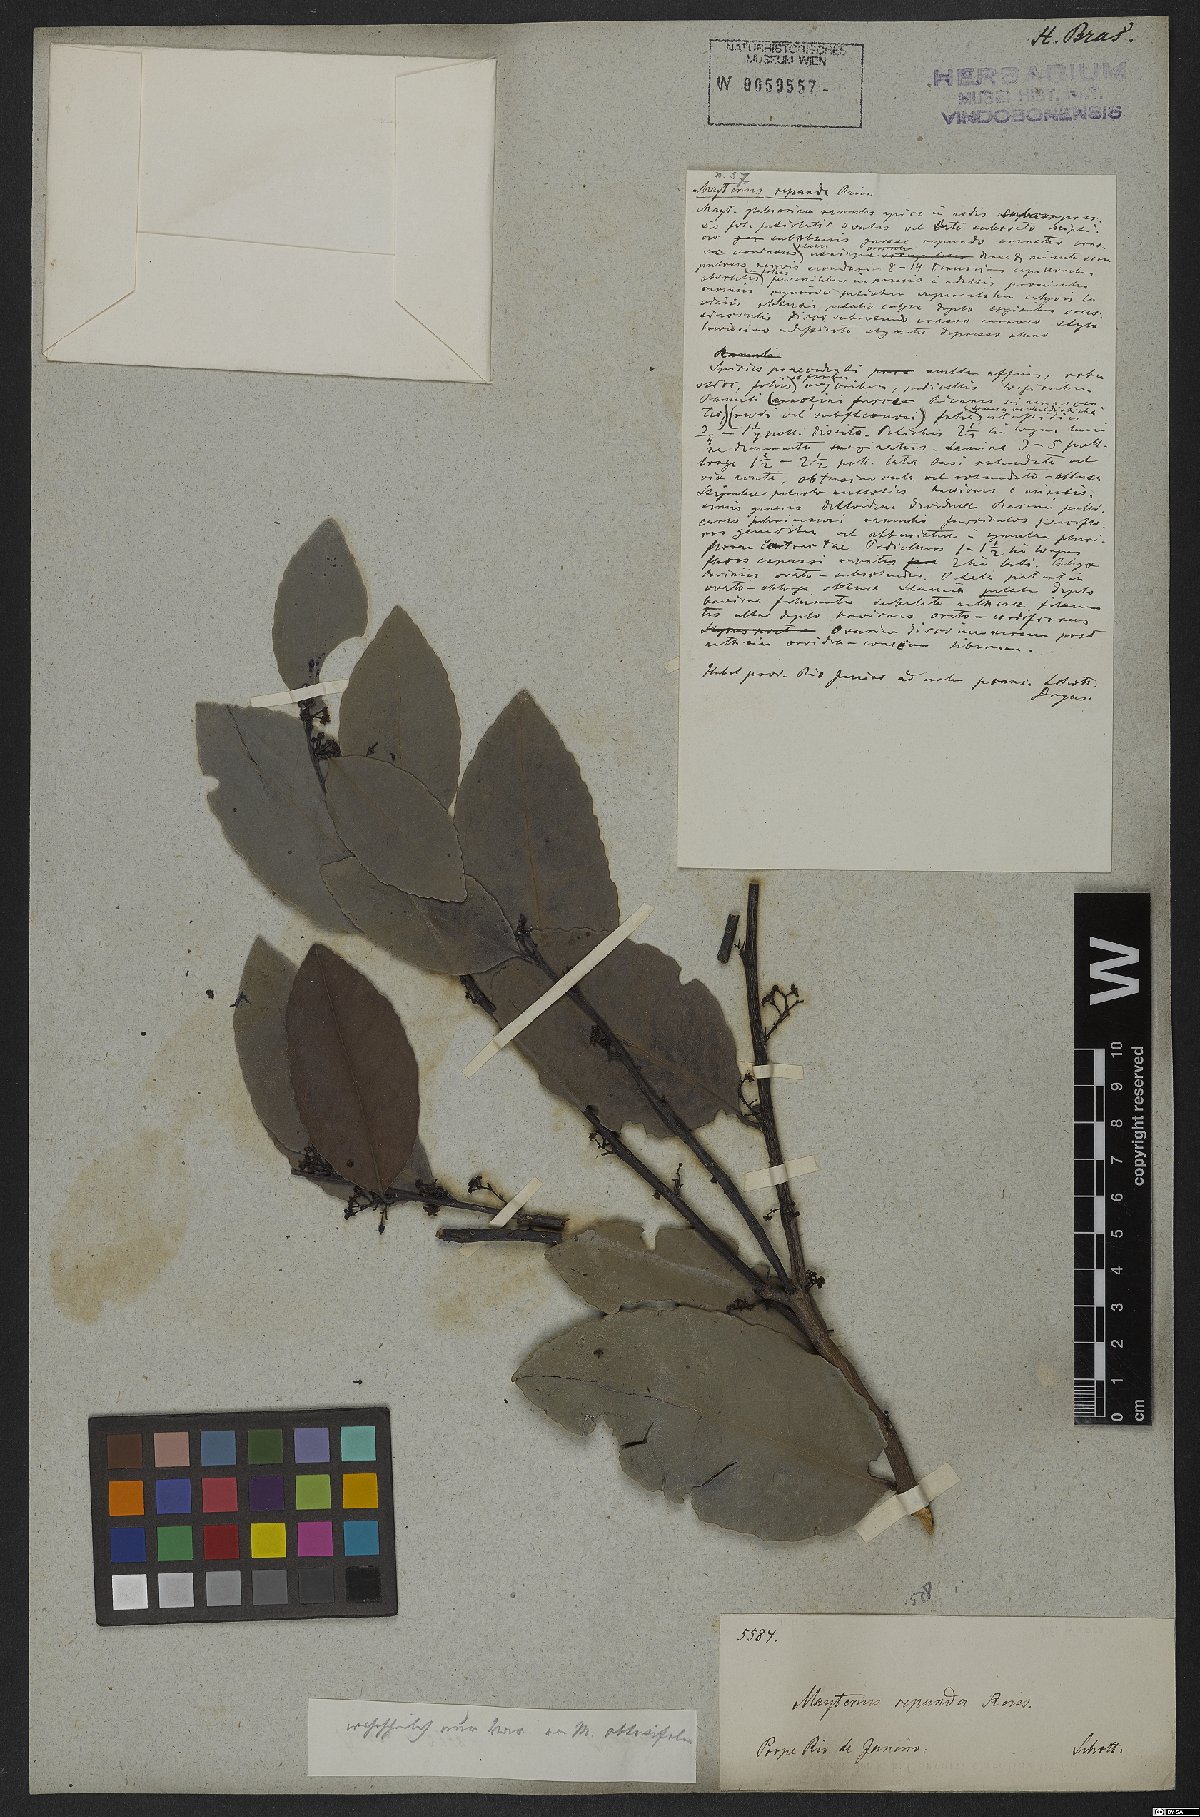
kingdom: Plantae
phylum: Tracheophyta
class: Magnoliopsida
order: Celastrales
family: Celastraceae
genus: Monteverdia
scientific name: Monteverdia myrsinoides
